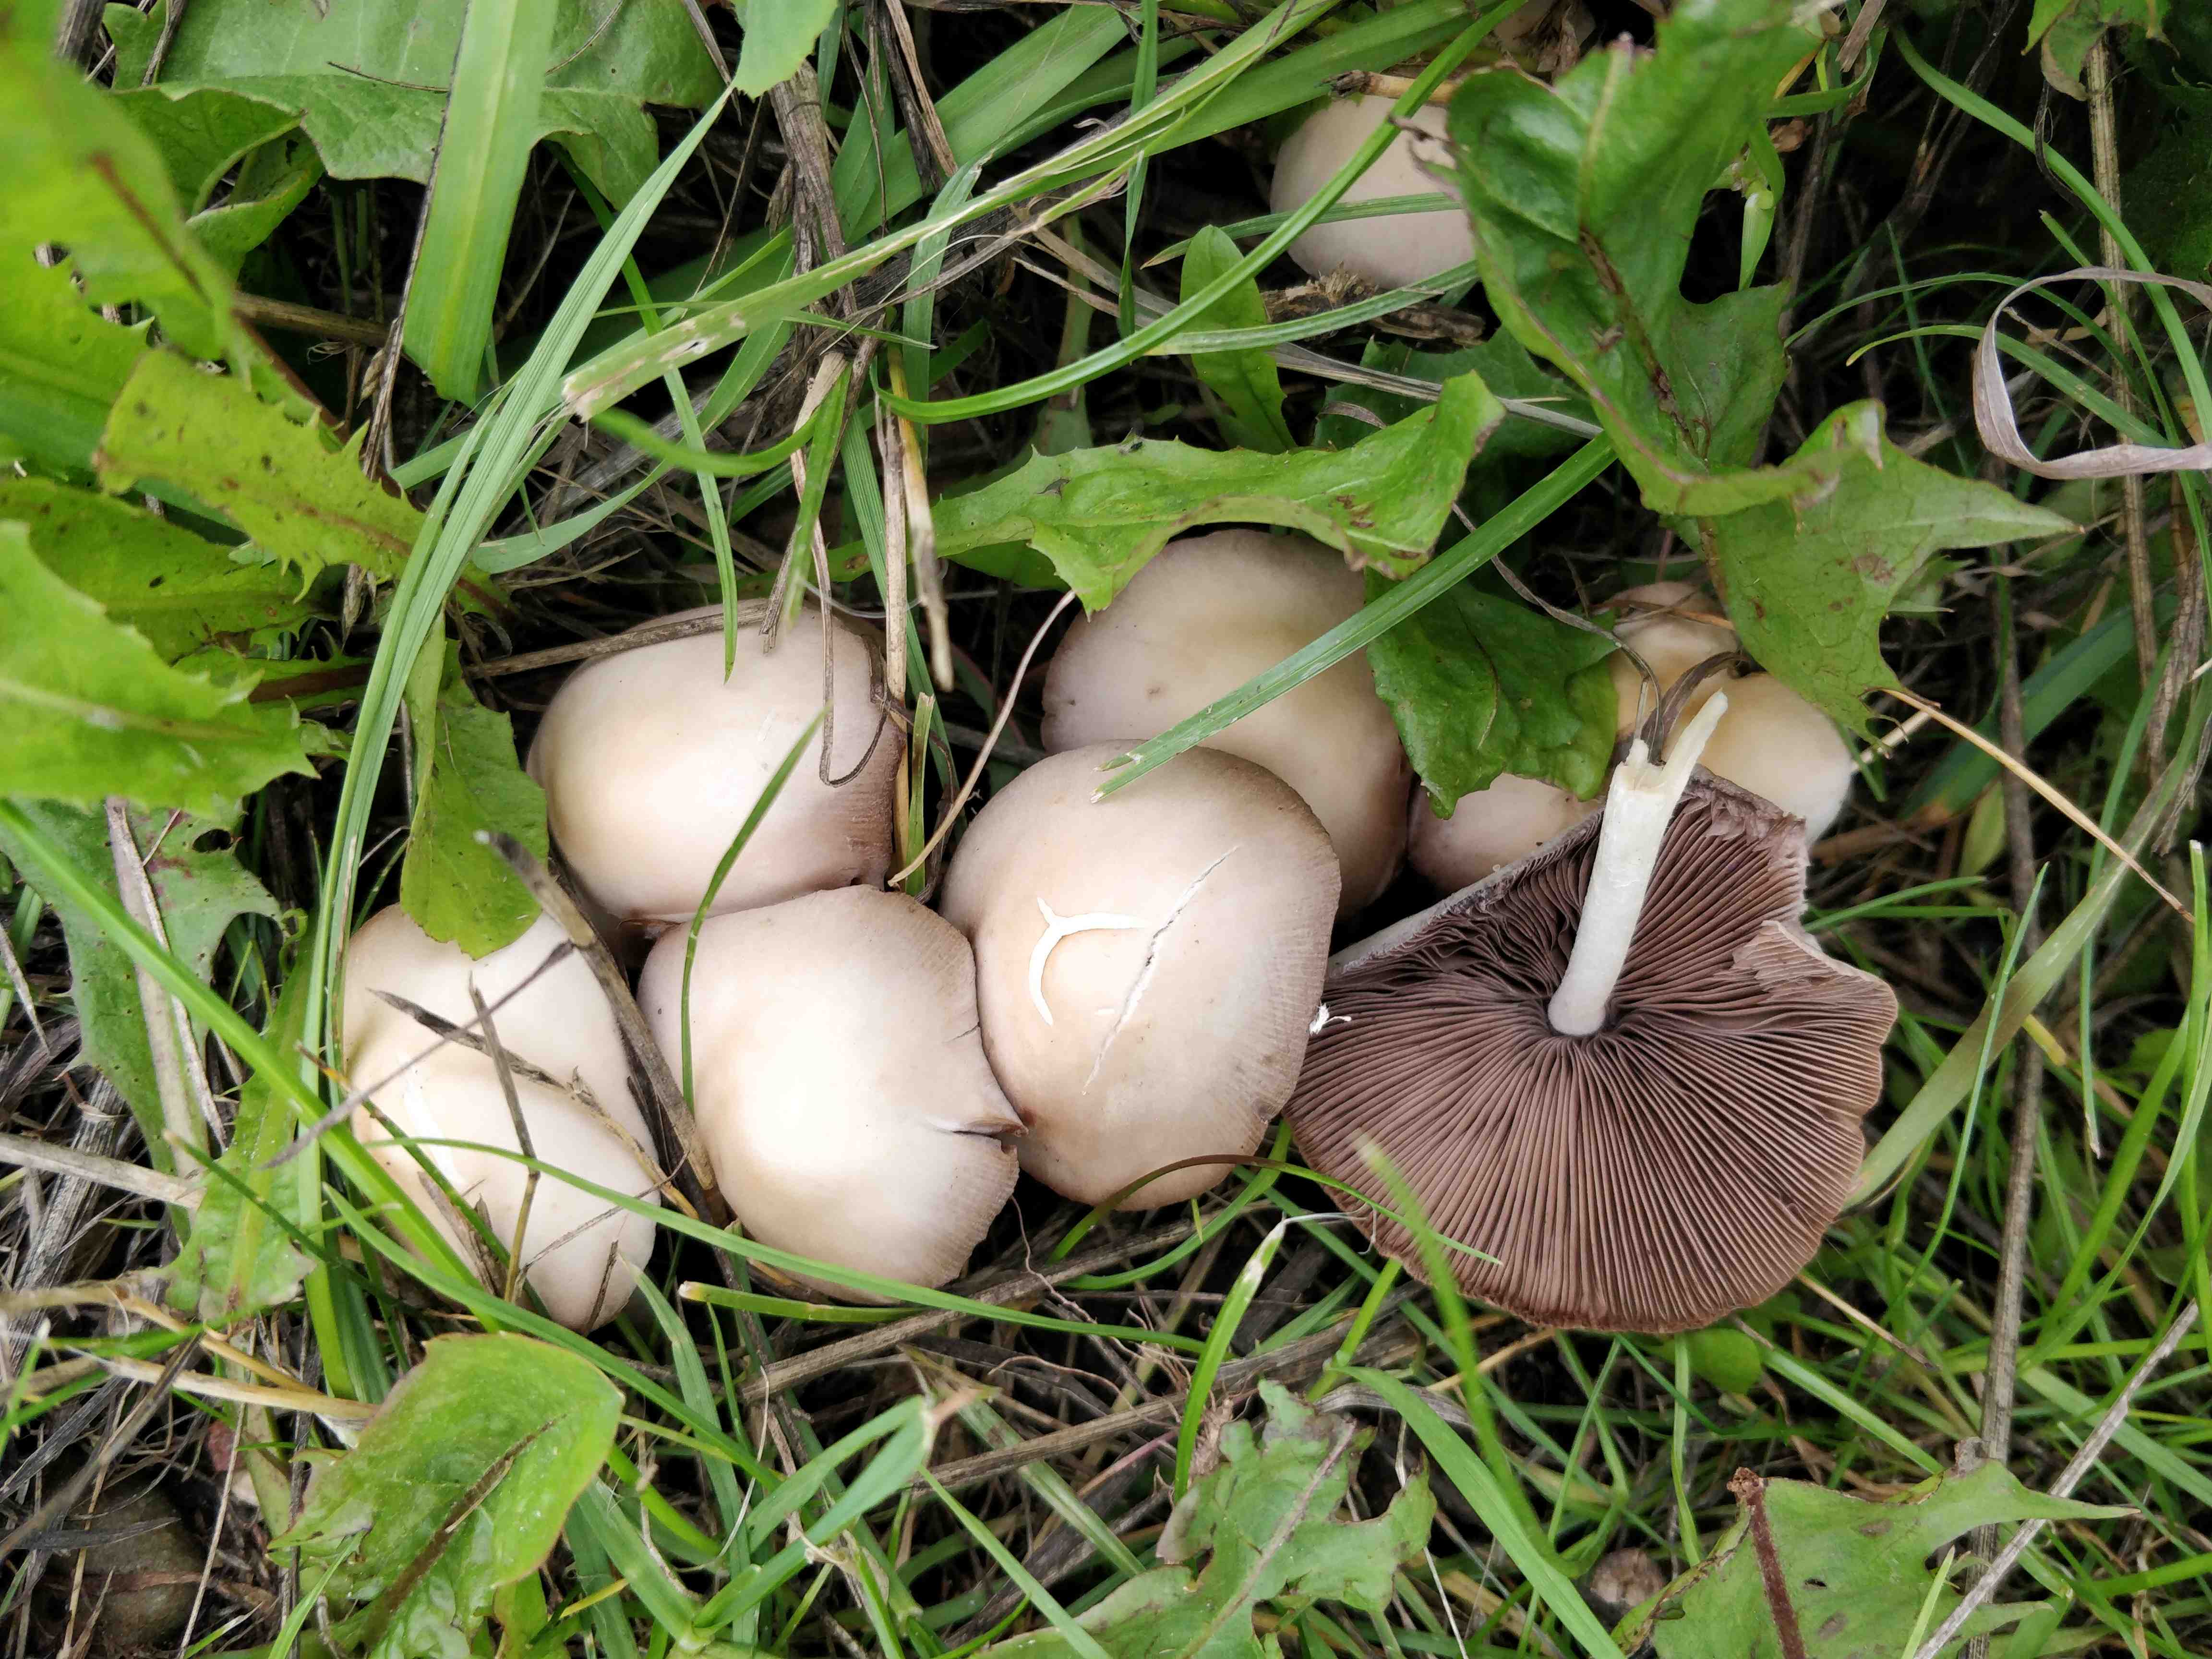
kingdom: Fungi
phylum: Basidiomycota
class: Agaricomycetes
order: Agaricales
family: Psathyrellaceae
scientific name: Psathyrellaceae
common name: mørkhatfamilien
